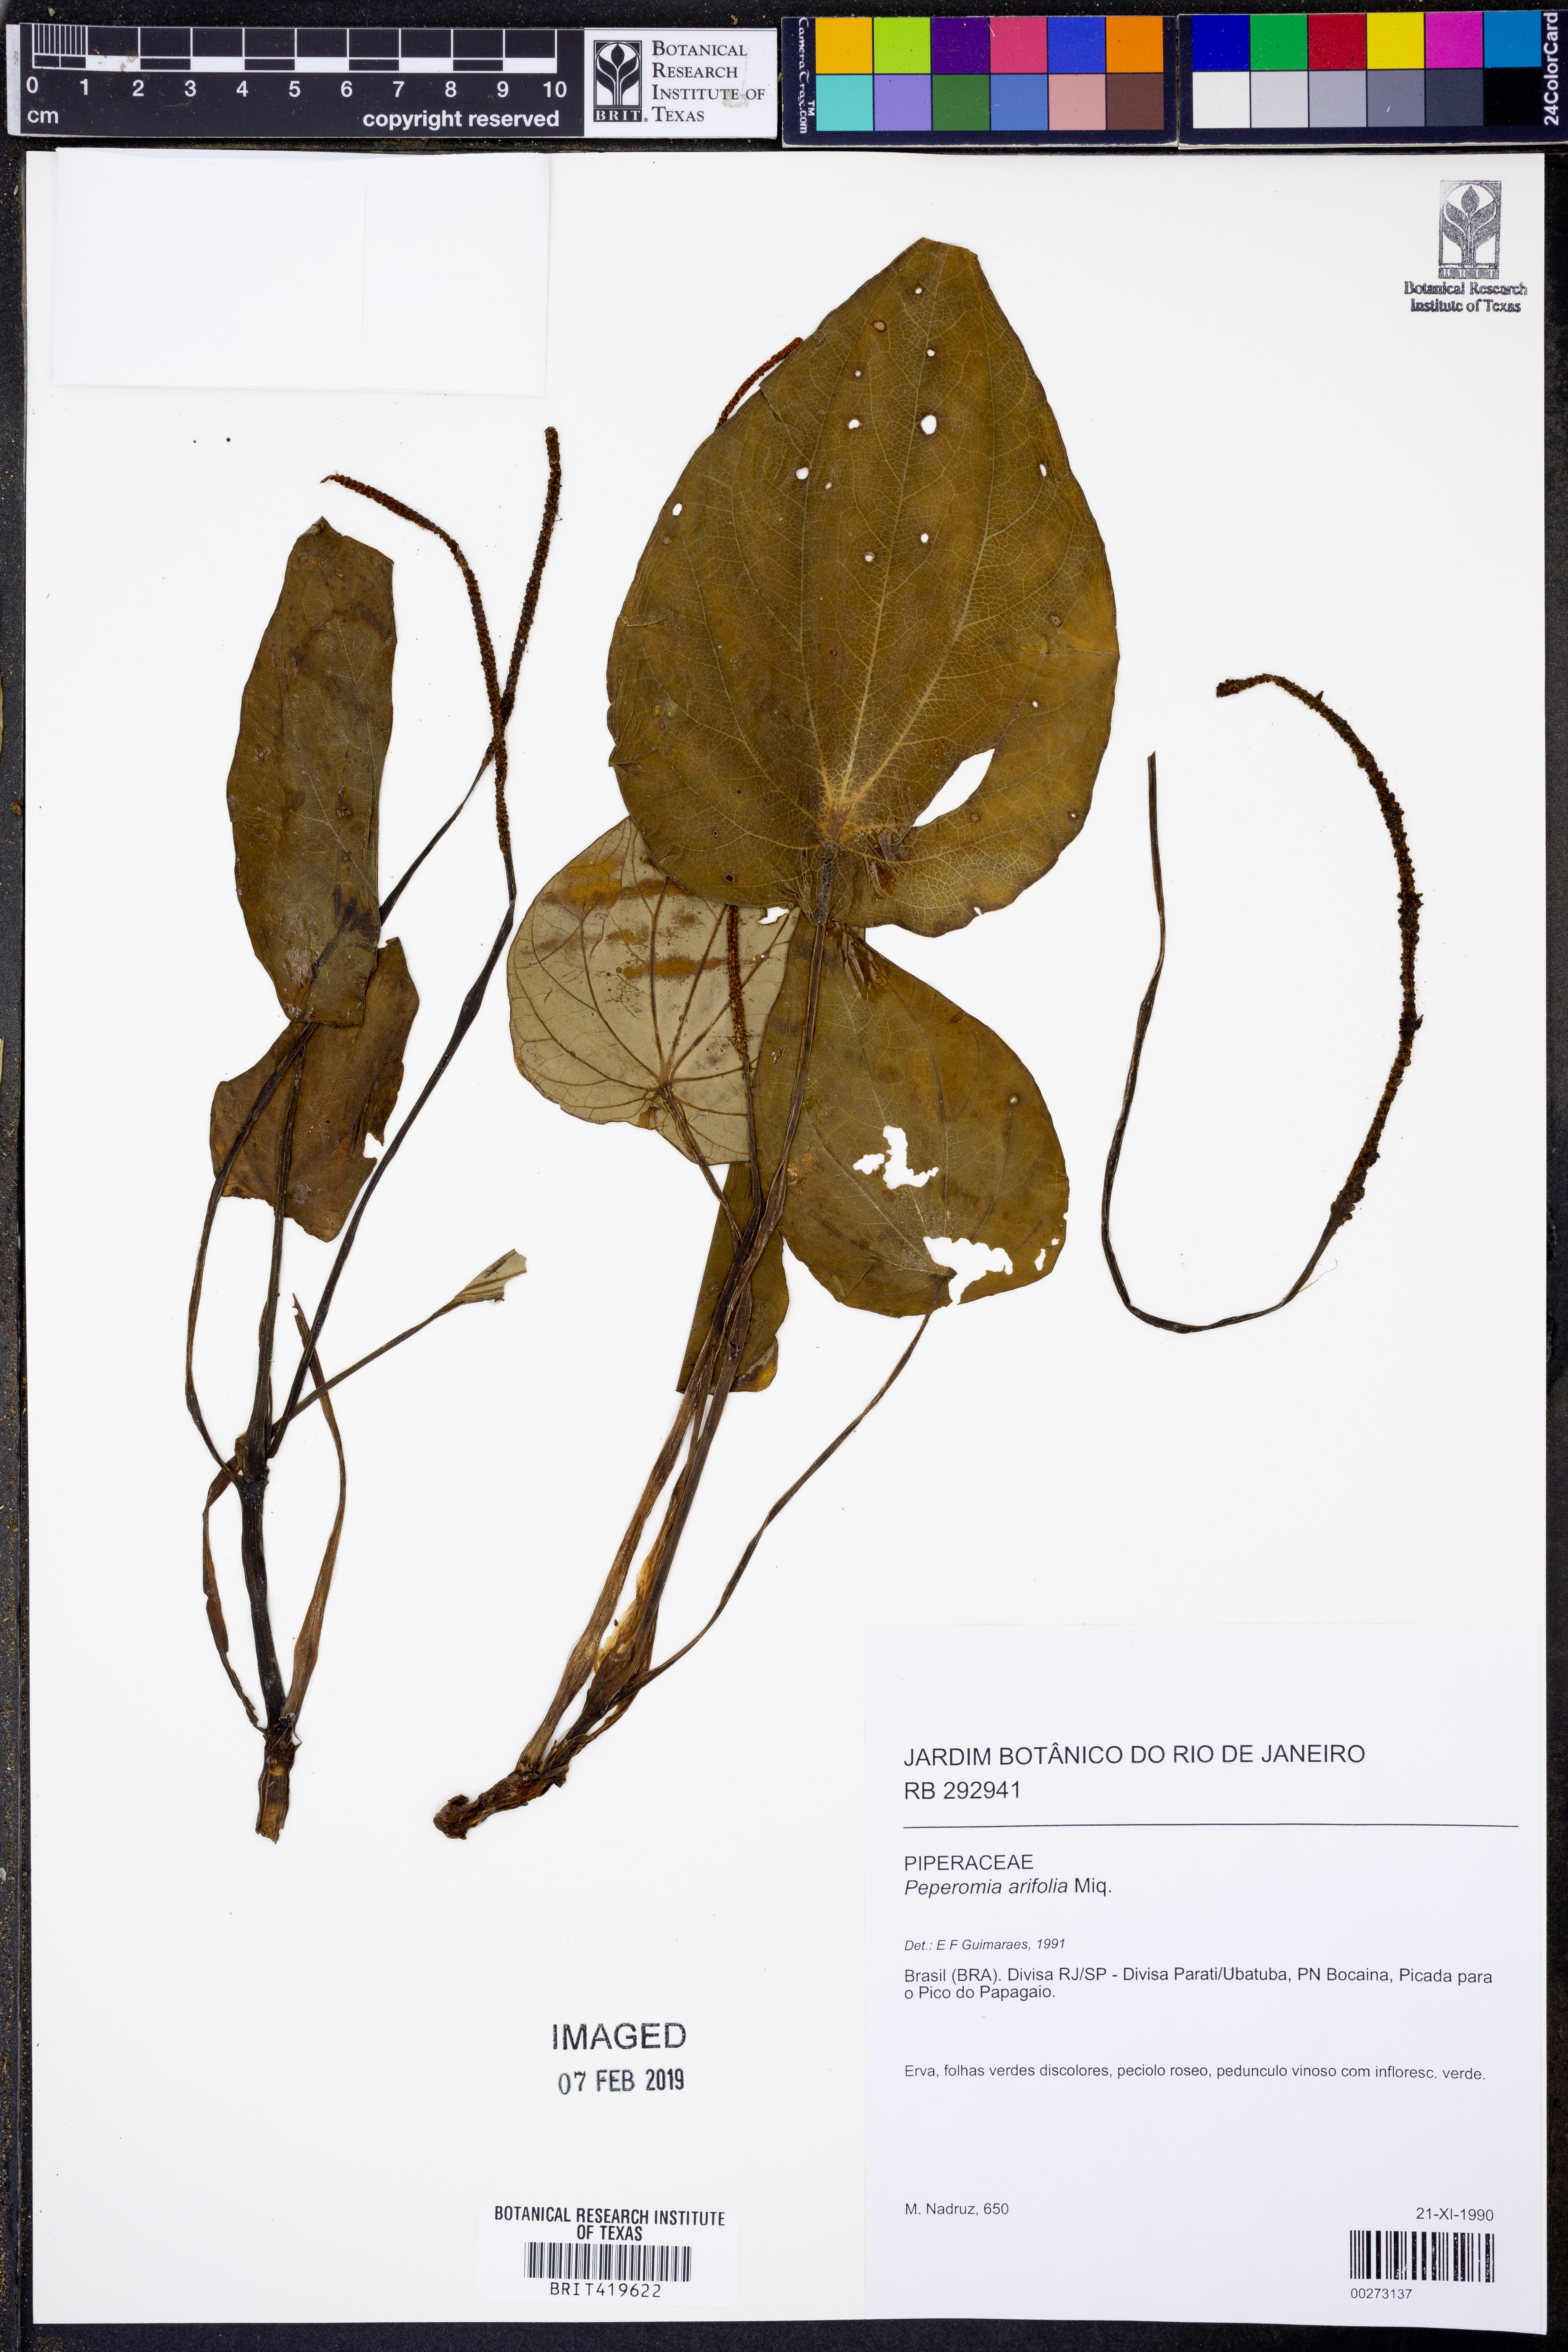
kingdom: Plantae
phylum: Tracheophyta
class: Magnoliopsida
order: Piperales
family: Piperaceae
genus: Peperomia
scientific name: Peperomia arifolia
